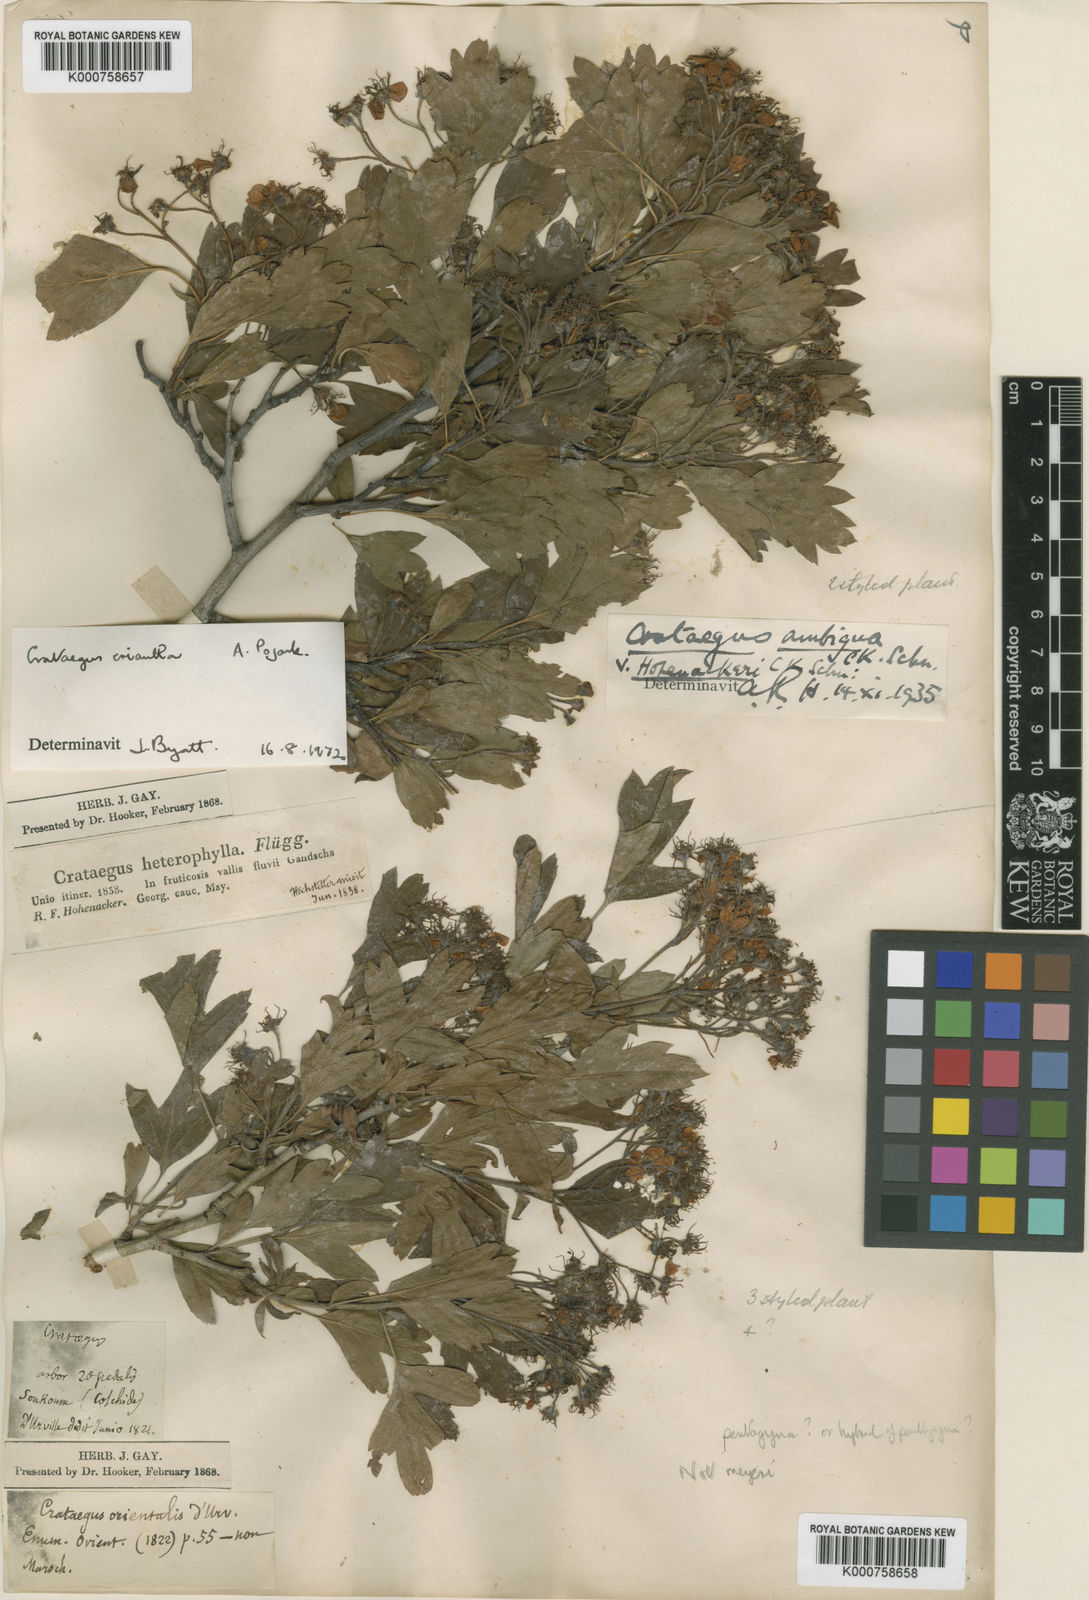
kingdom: Plantae
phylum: Tracheophyta
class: Magnoliopsida
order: Rosales
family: Rosaceae
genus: Crataegus
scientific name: Crataegus meyeri
